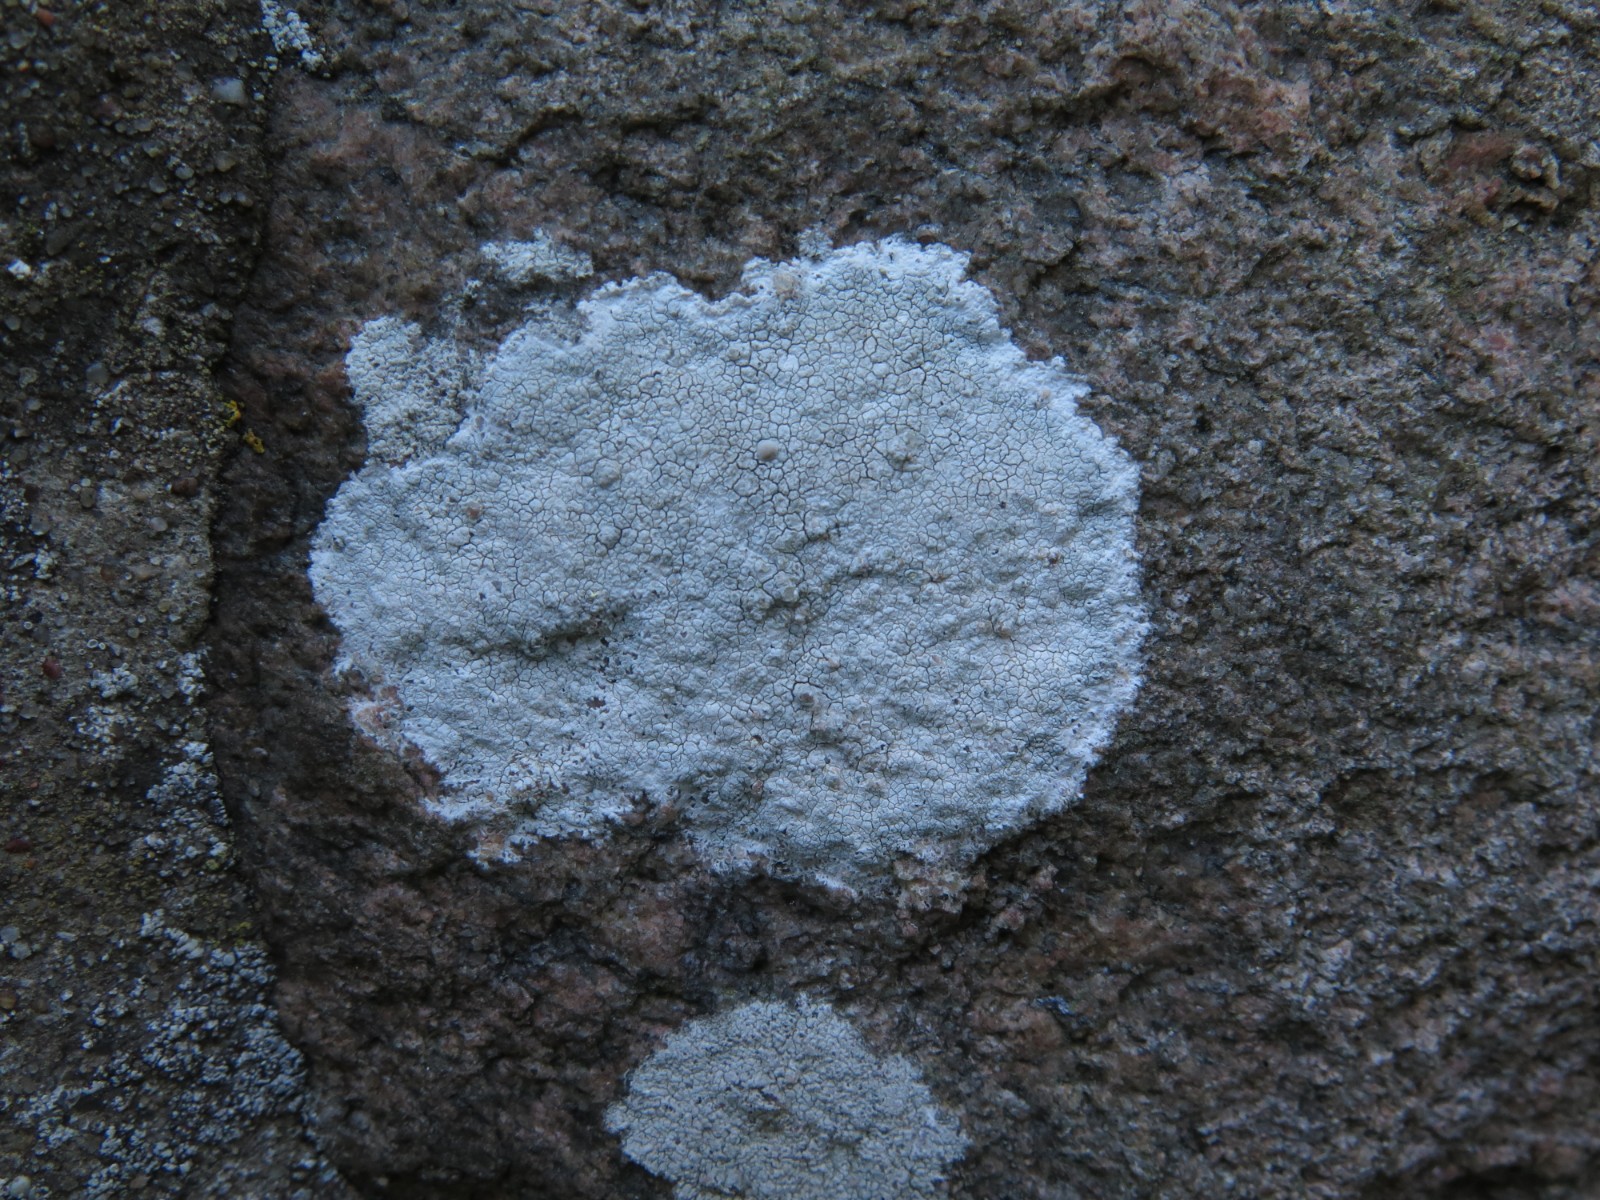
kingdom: Fungi
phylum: Ascomycota
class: Lecanoromycetes
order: Lecanorales
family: Lecanoraceae
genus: Glaucomaria
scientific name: Glaucomaria rupicola
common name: stengærde-kantskivelav
